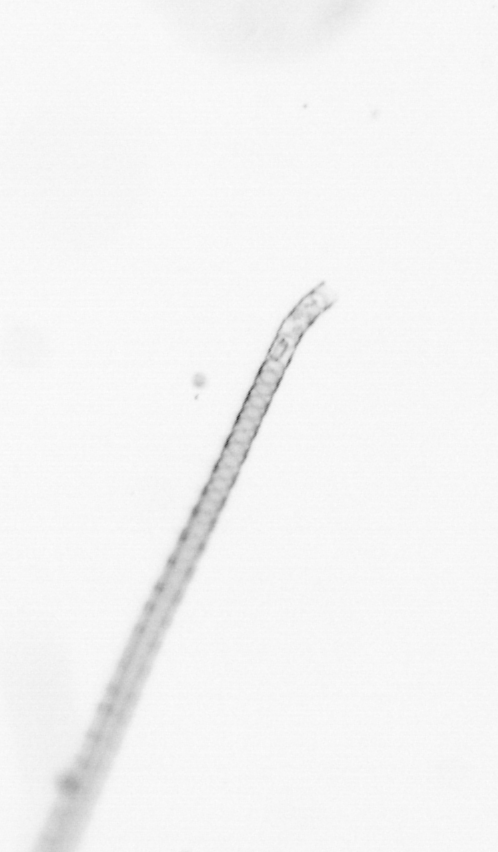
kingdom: Chromista
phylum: Ochrophyta
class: Bacillariophyceae
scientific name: Bacillariophyceae
